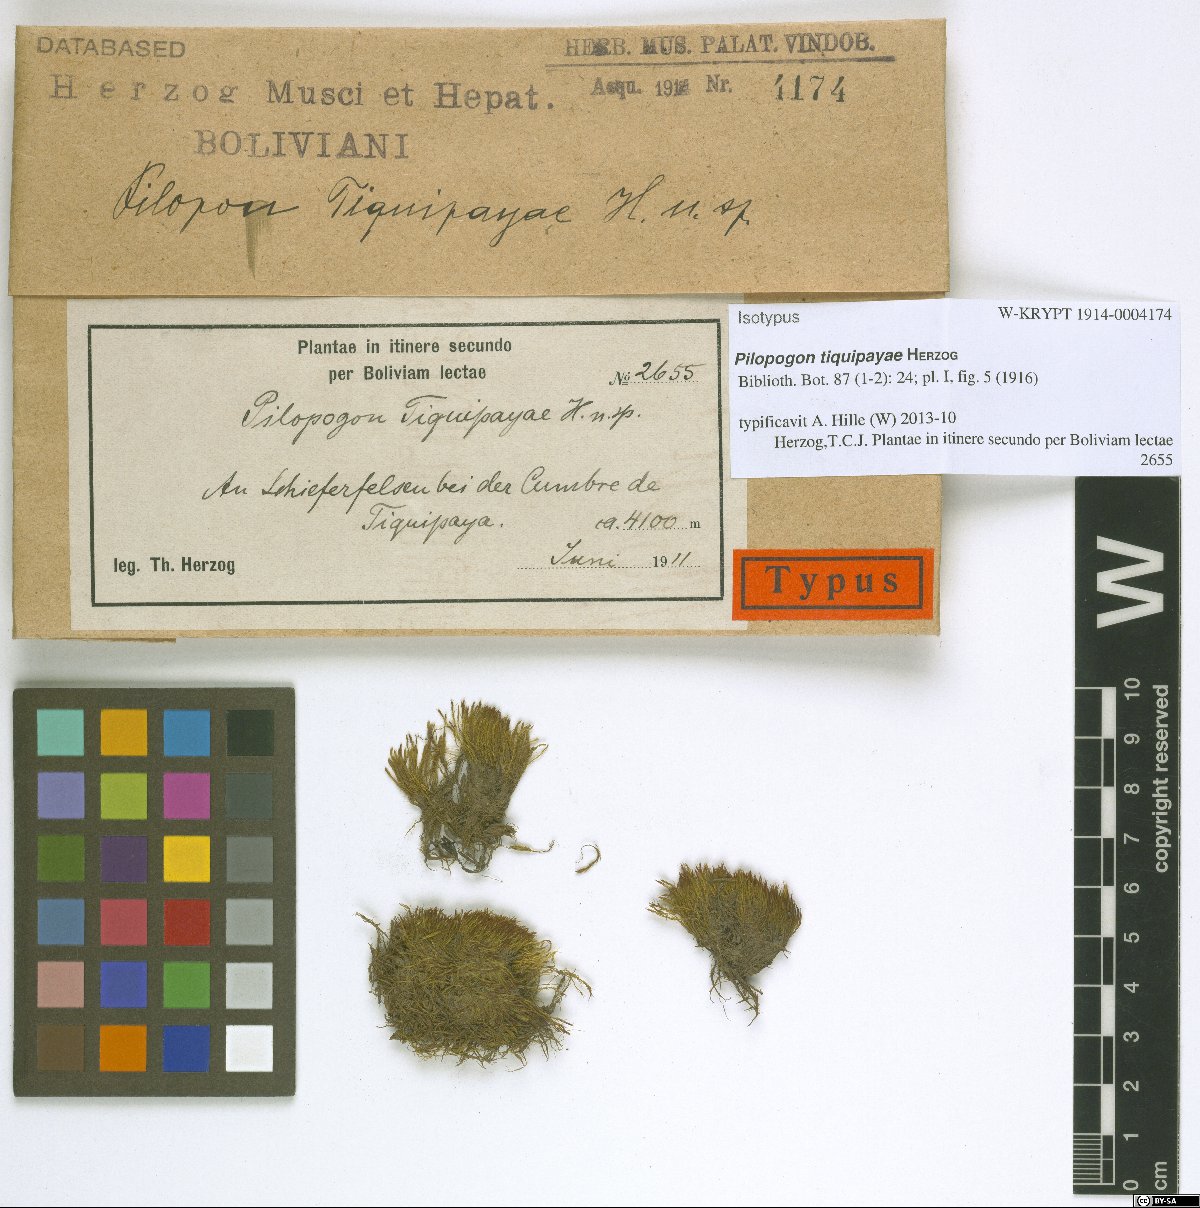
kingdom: Plantae
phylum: Bryophyta
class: Bryopsida
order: Dicranales
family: Leucobryaceae
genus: Pilopogon
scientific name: Pilopogon tiquipayae
